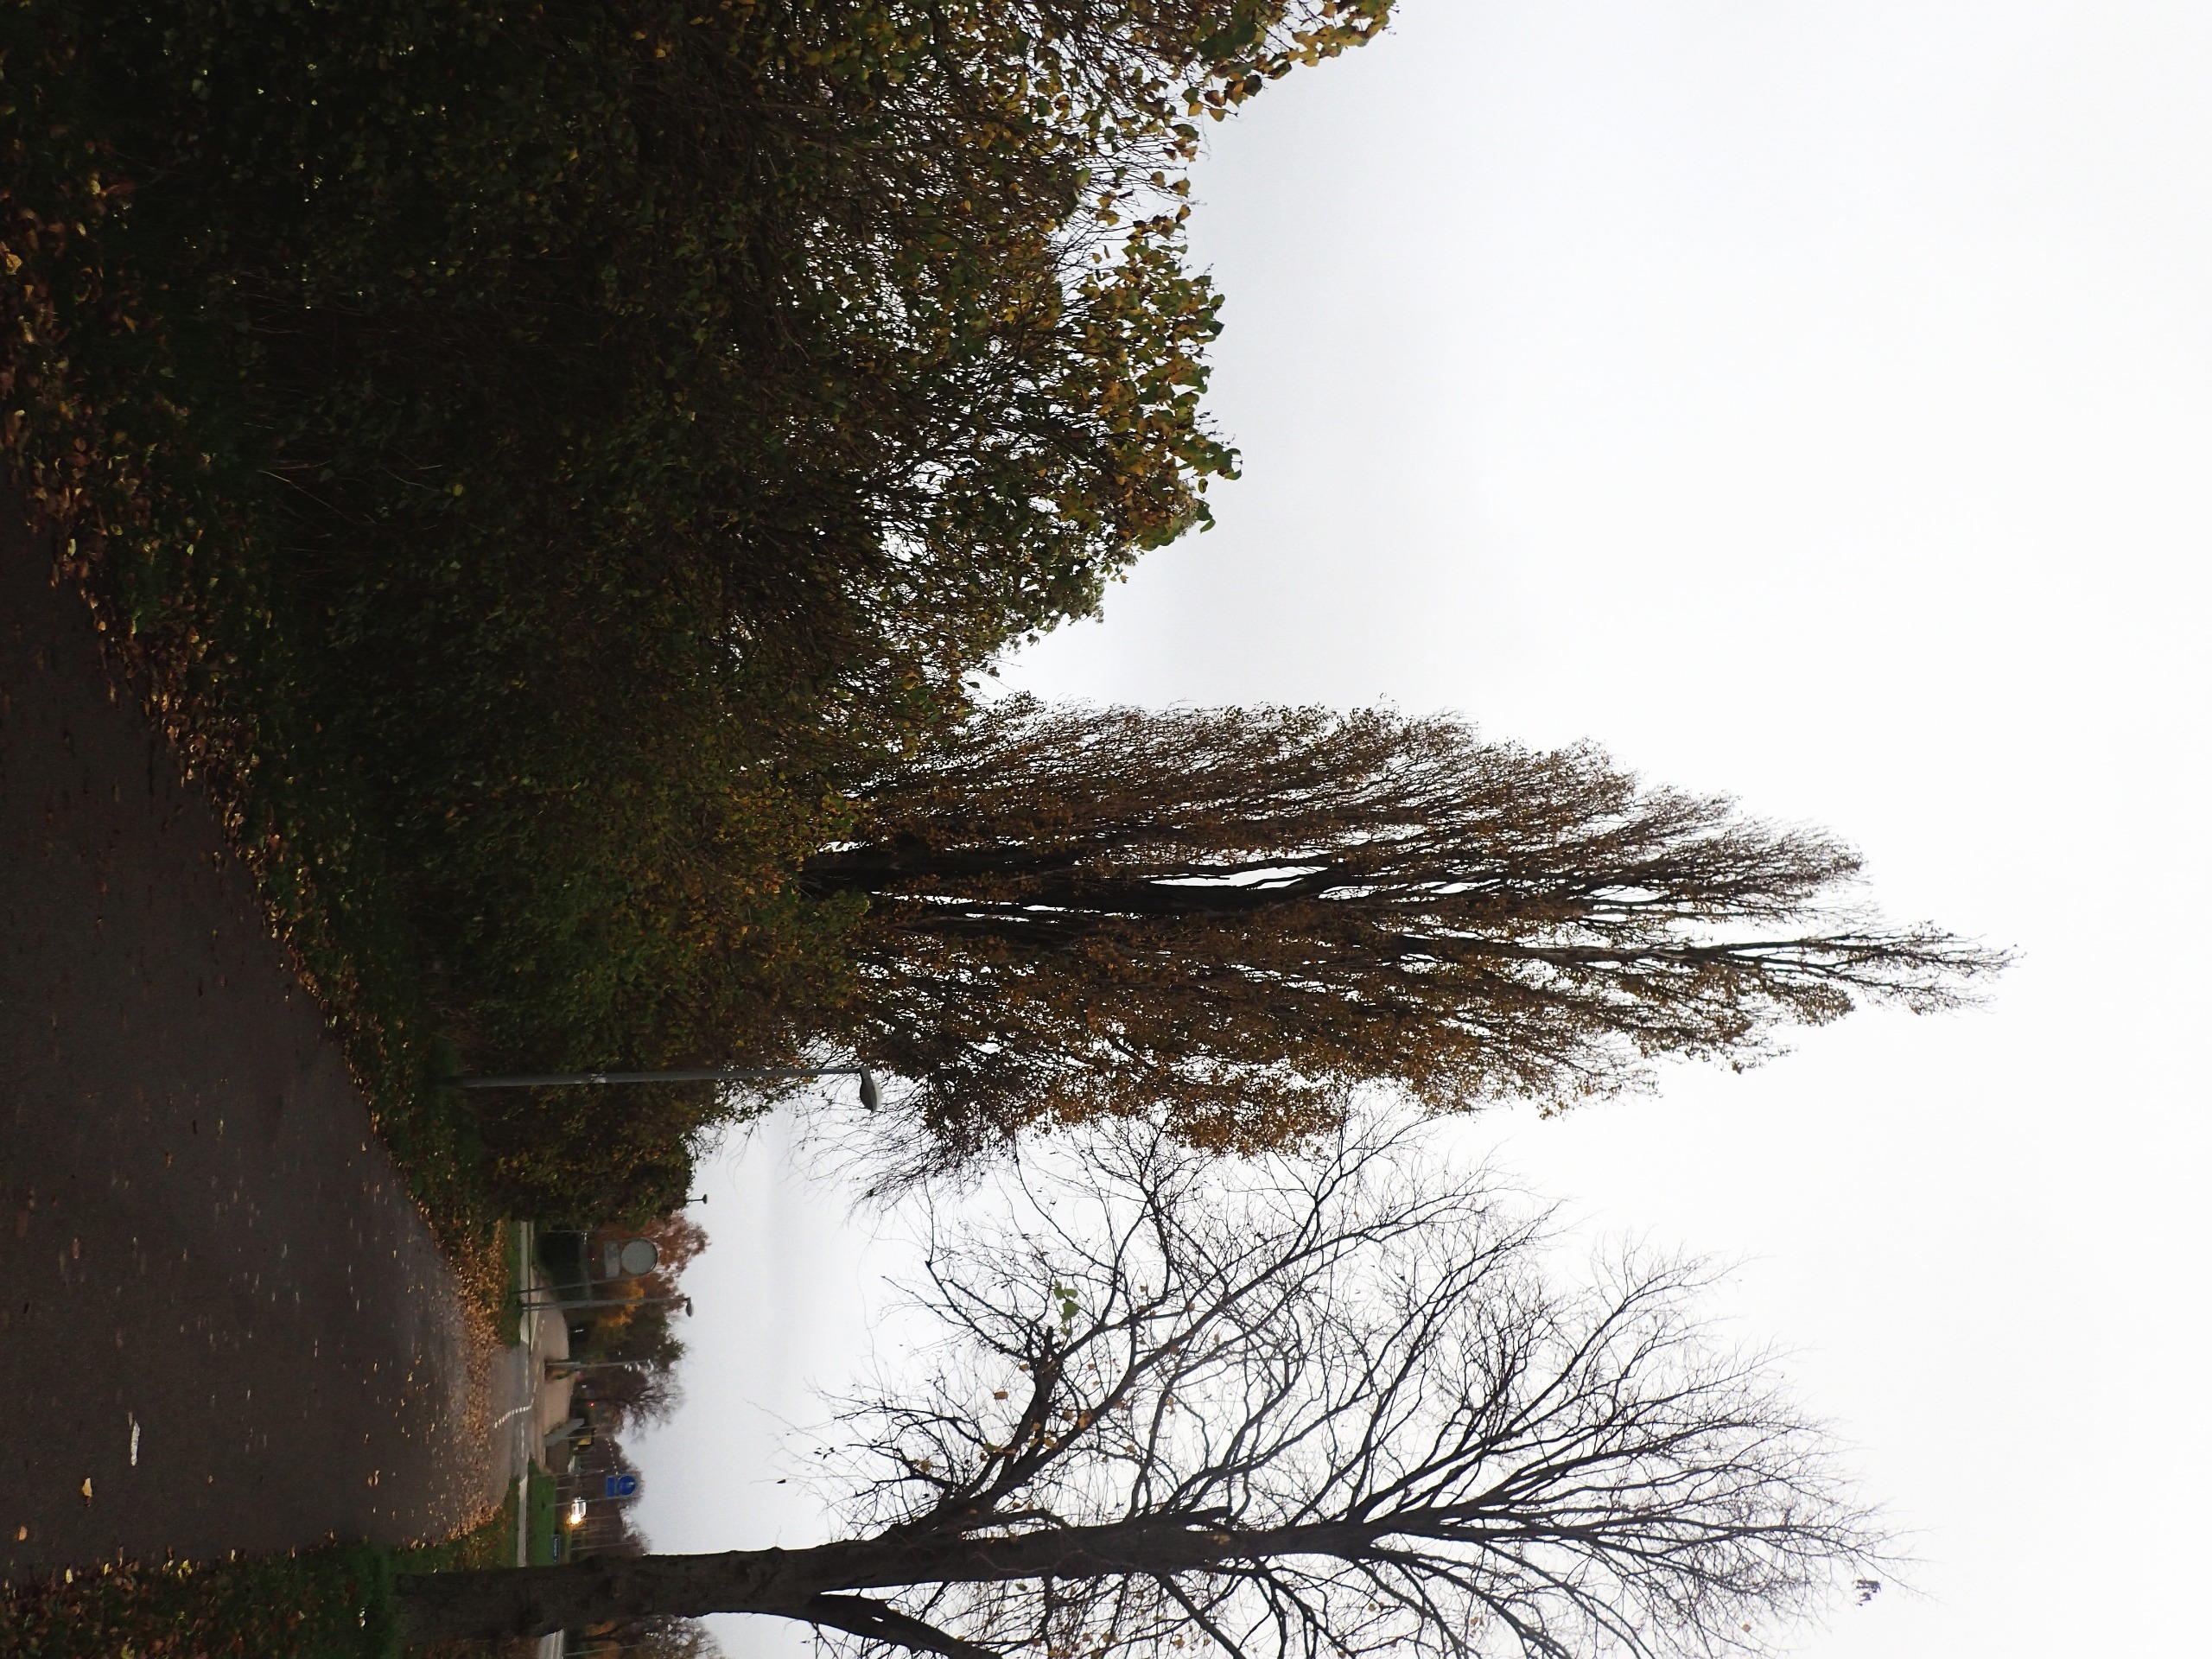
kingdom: Plantae
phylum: Tracheophyta
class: Magnoliopsida
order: Malpighiales
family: Salicaceae
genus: Populus
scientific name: Populus nigra
